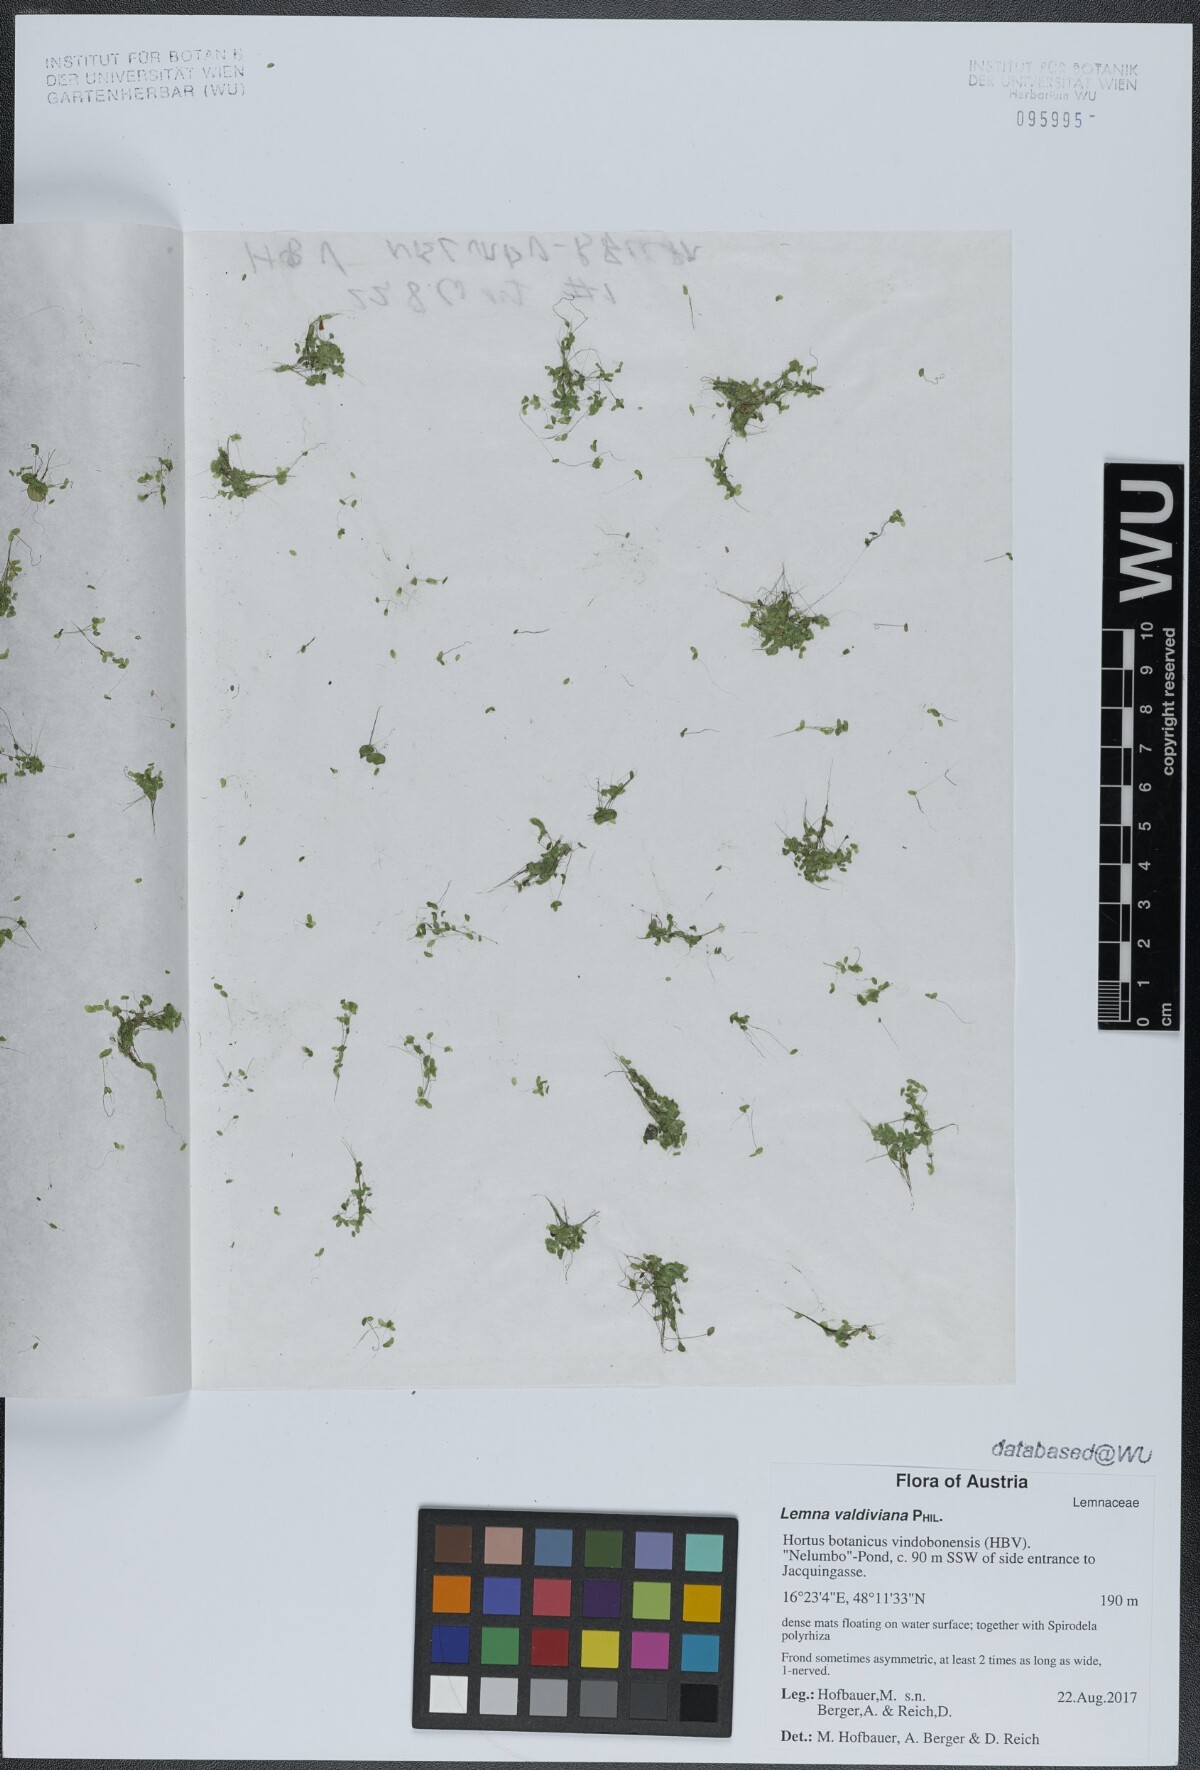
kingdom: Plantae
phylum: Tracheophyta
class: Liliopsida
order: Alismatales
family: Araceae
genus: Lemna
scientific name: Lemna valdiviana
